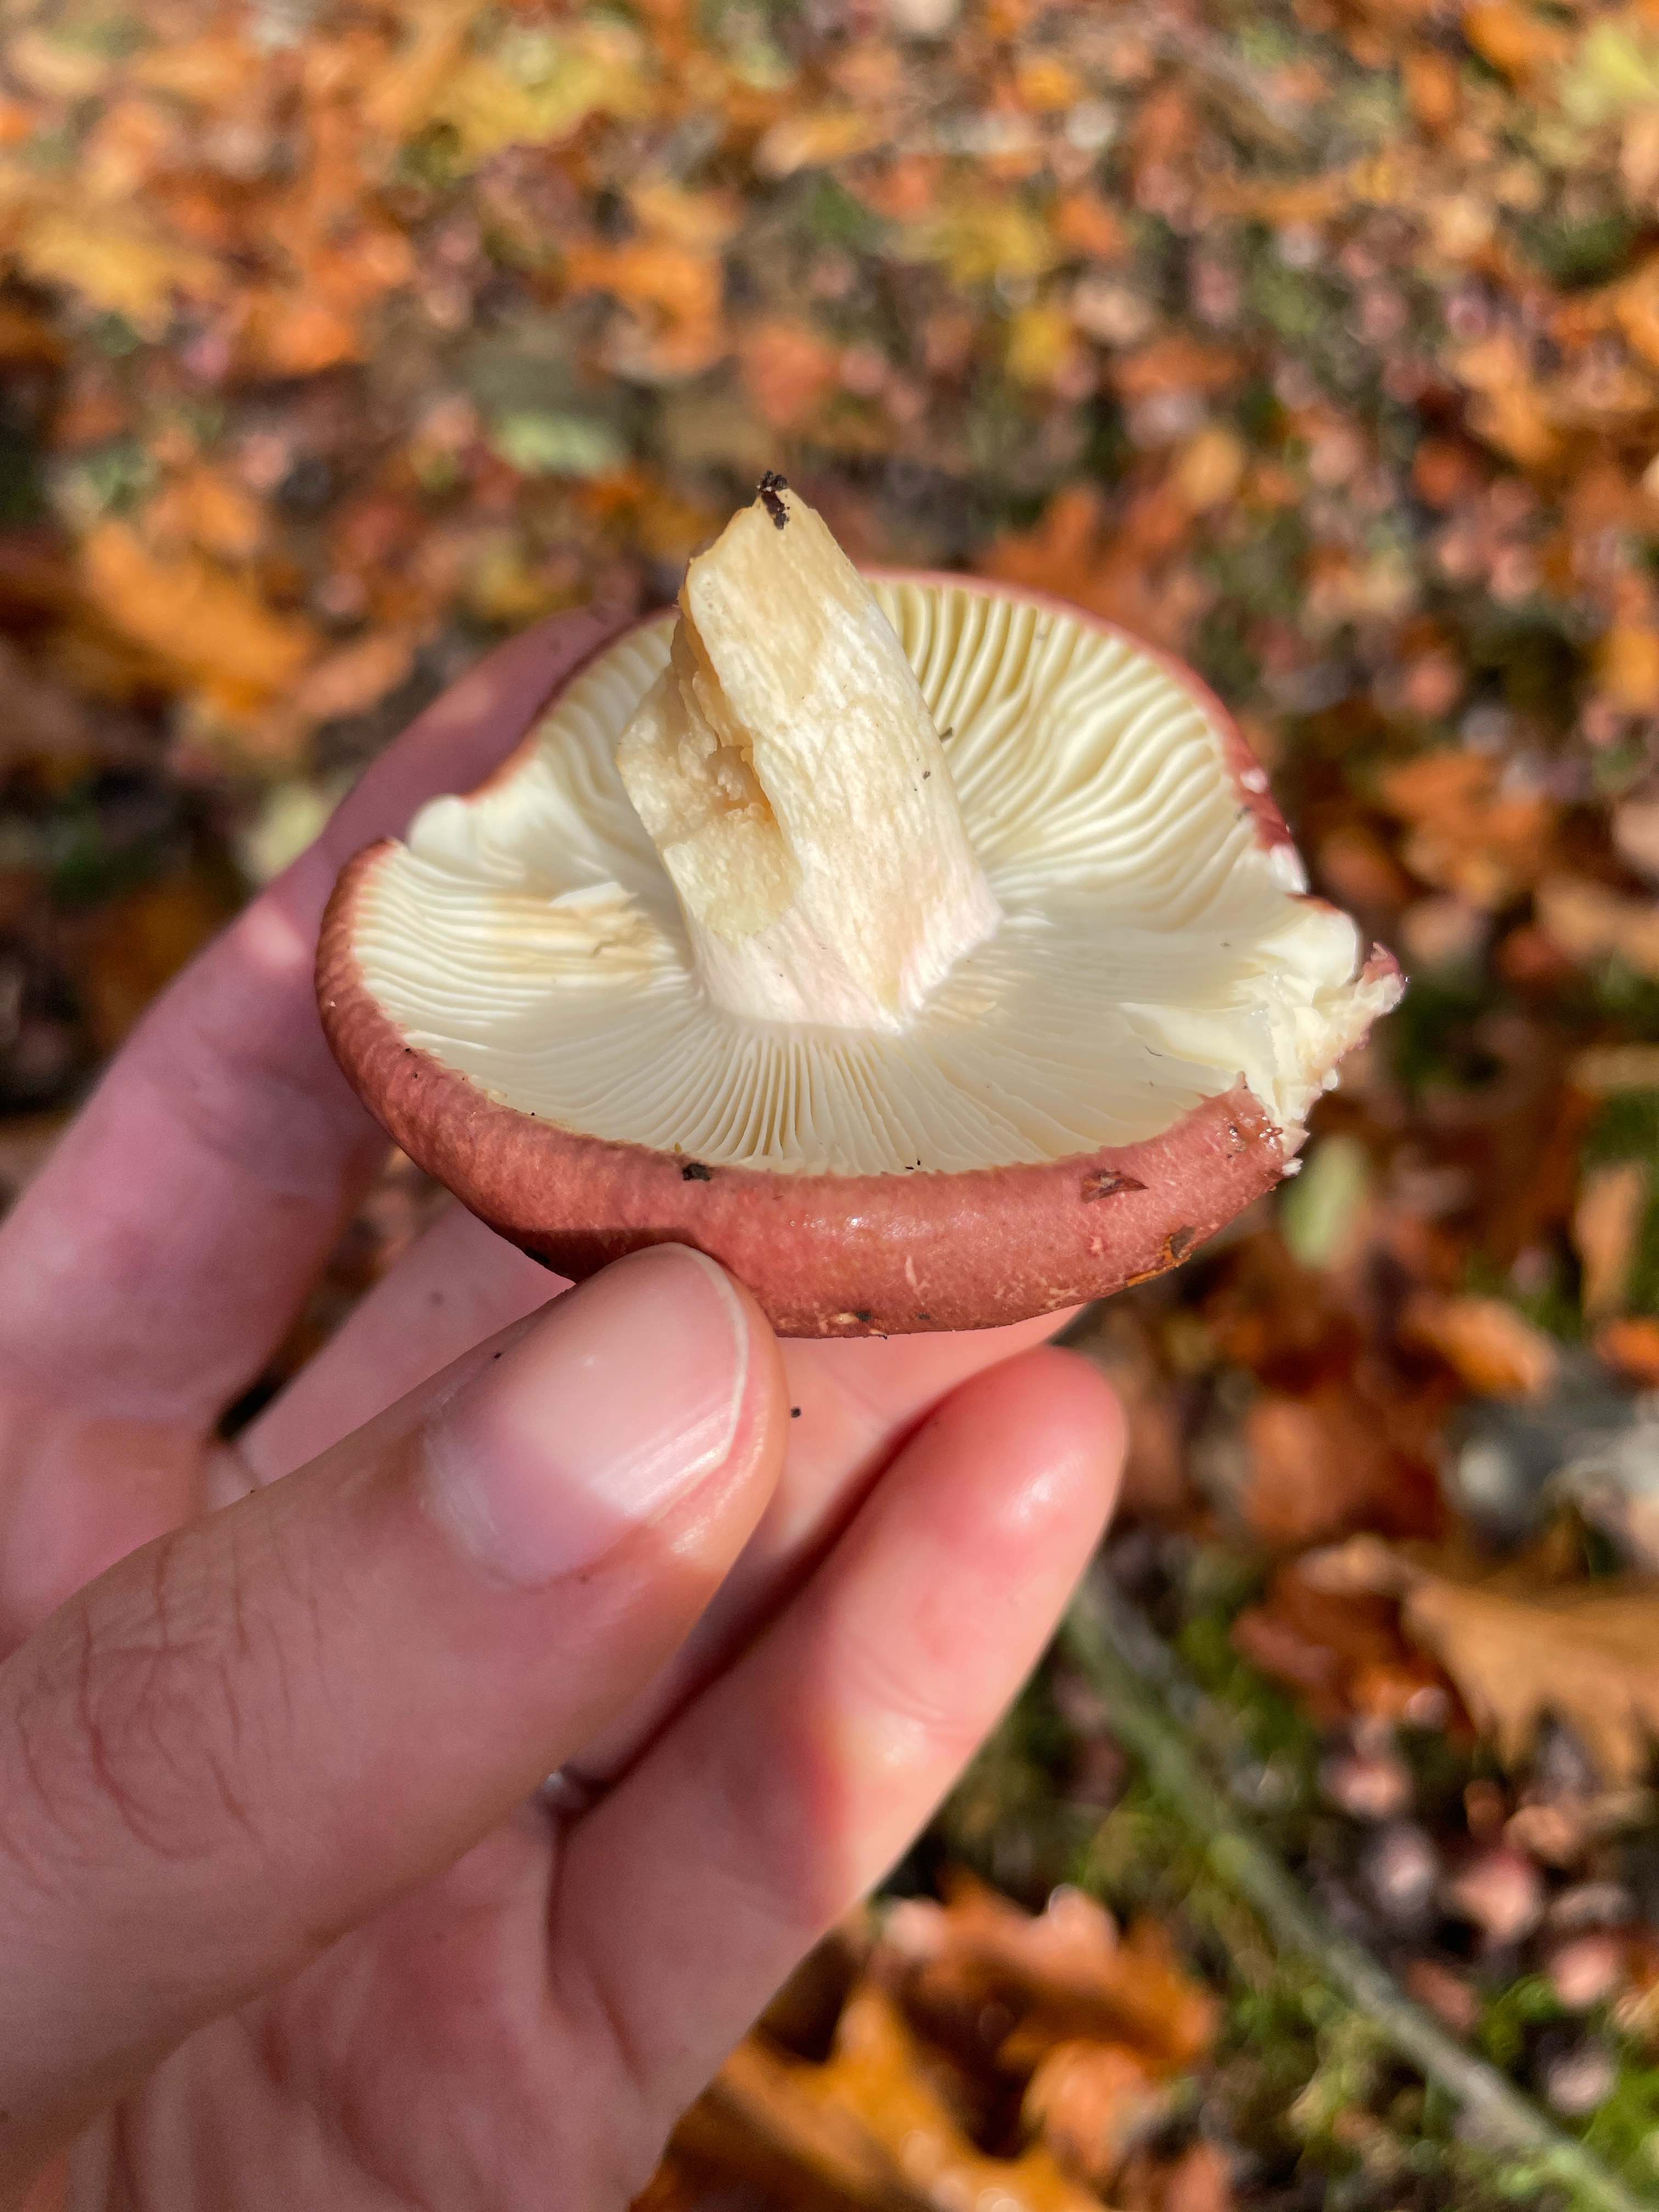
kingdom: Fungi
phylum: Basidiomycota
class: Agaricomycetes
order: Russulales
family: Russulaceae
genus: Russula
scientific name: Russula olivacea
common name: stor skørhat
